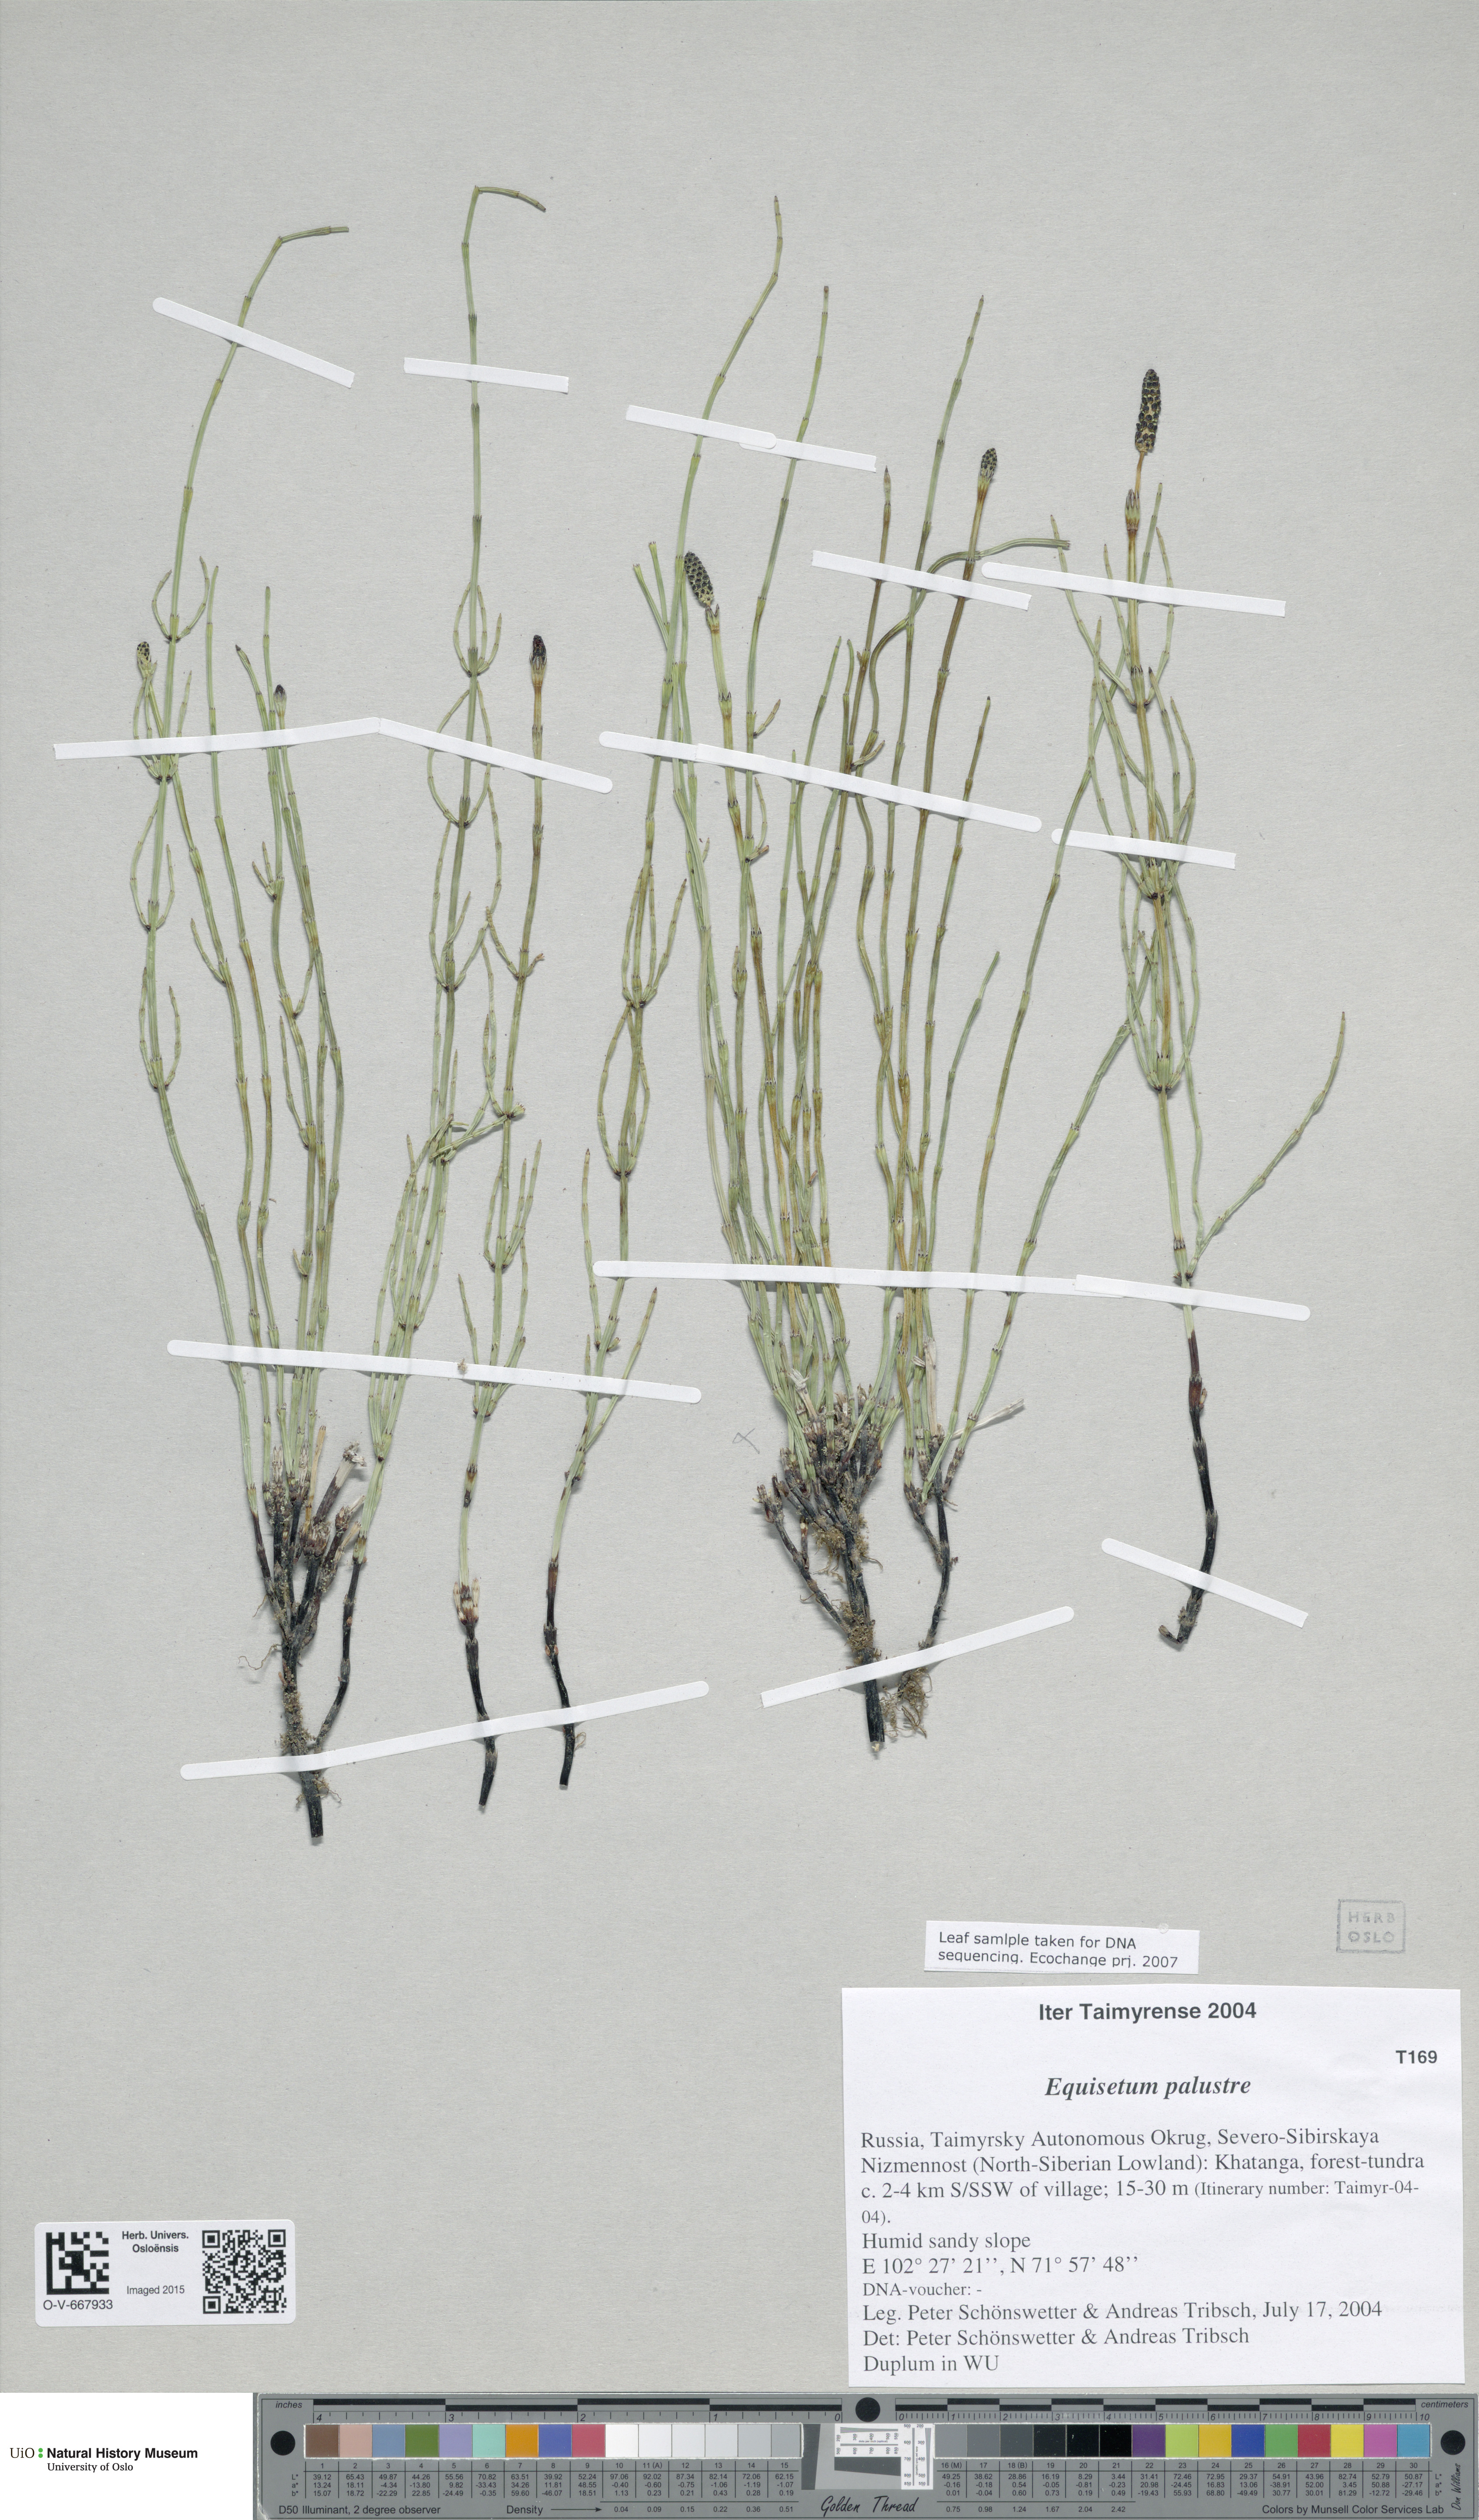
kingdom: Plantae
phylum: Tracheophyta
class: Polypodiopsida
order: Equisetales
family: Equisetaceae
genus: Equisetum
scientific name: Equisetum palustre
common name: Marsh horsetail
